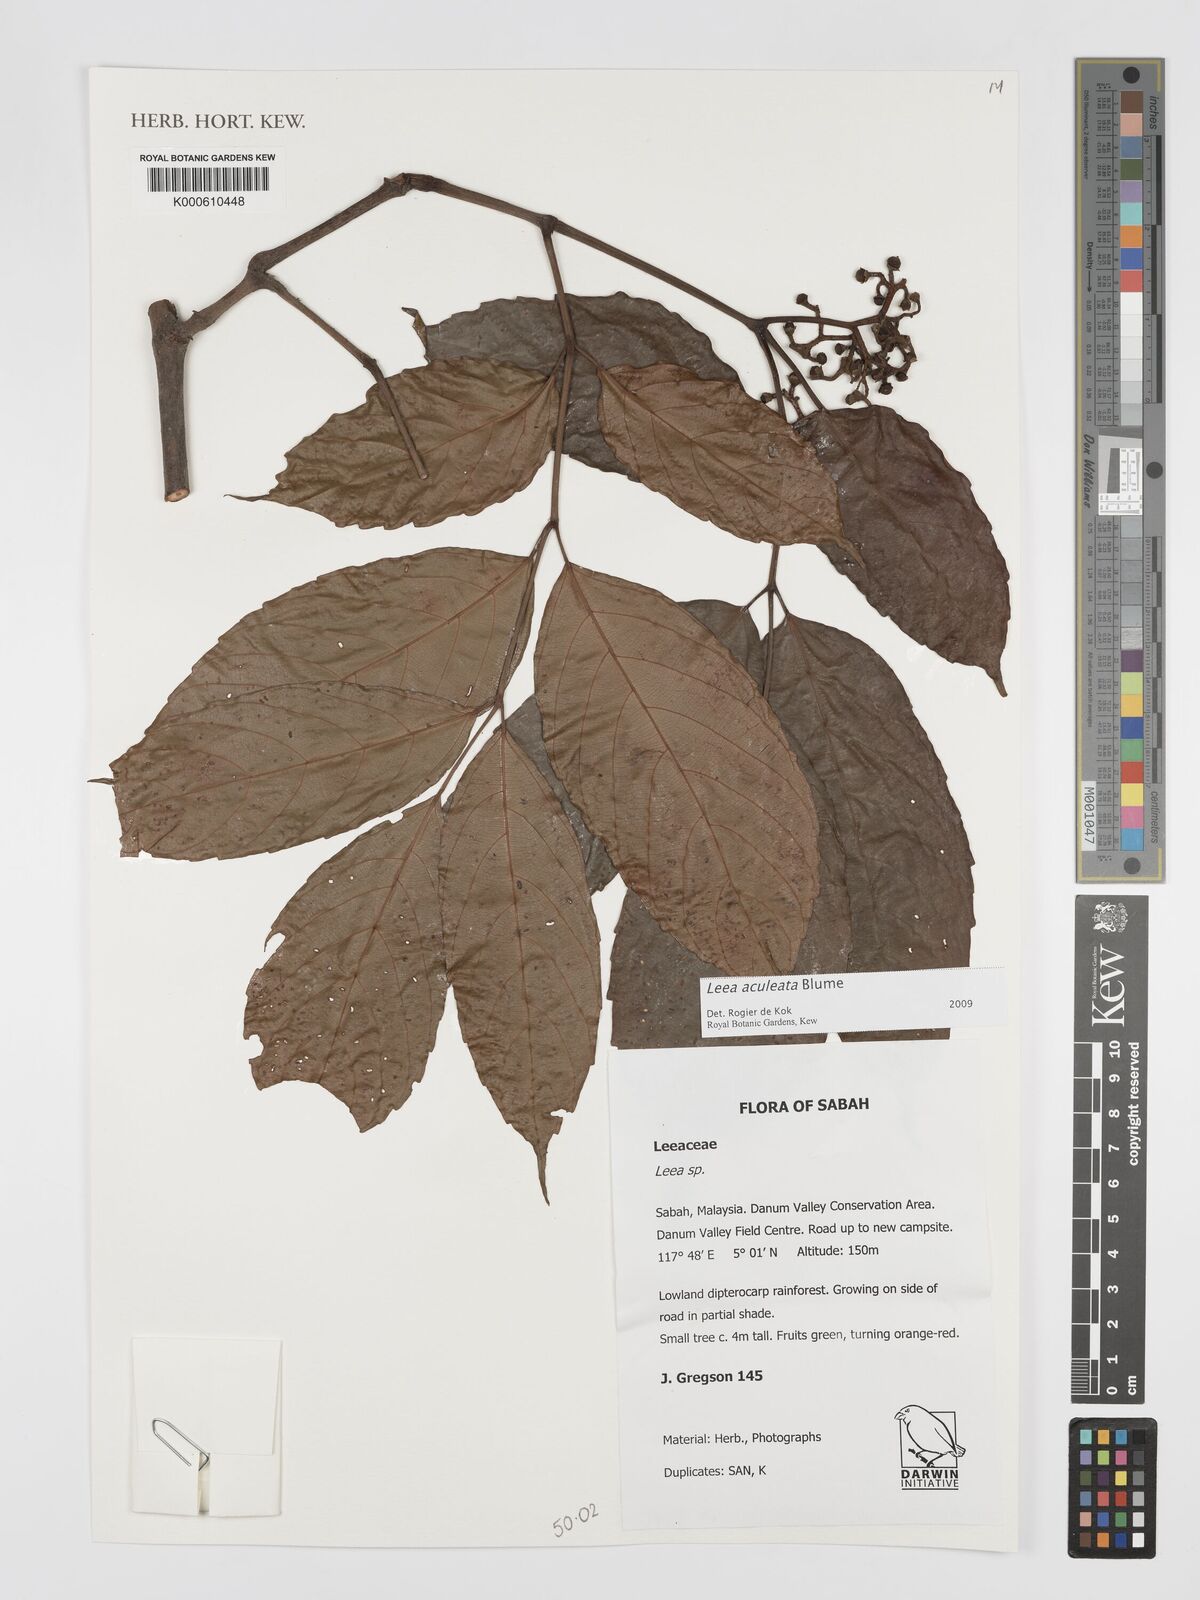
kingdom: Plantae
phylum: Tracheophyta
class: Magnoliopsida
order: Vitales
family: Vitaceae
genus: Leea
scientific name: Leea aculeata
